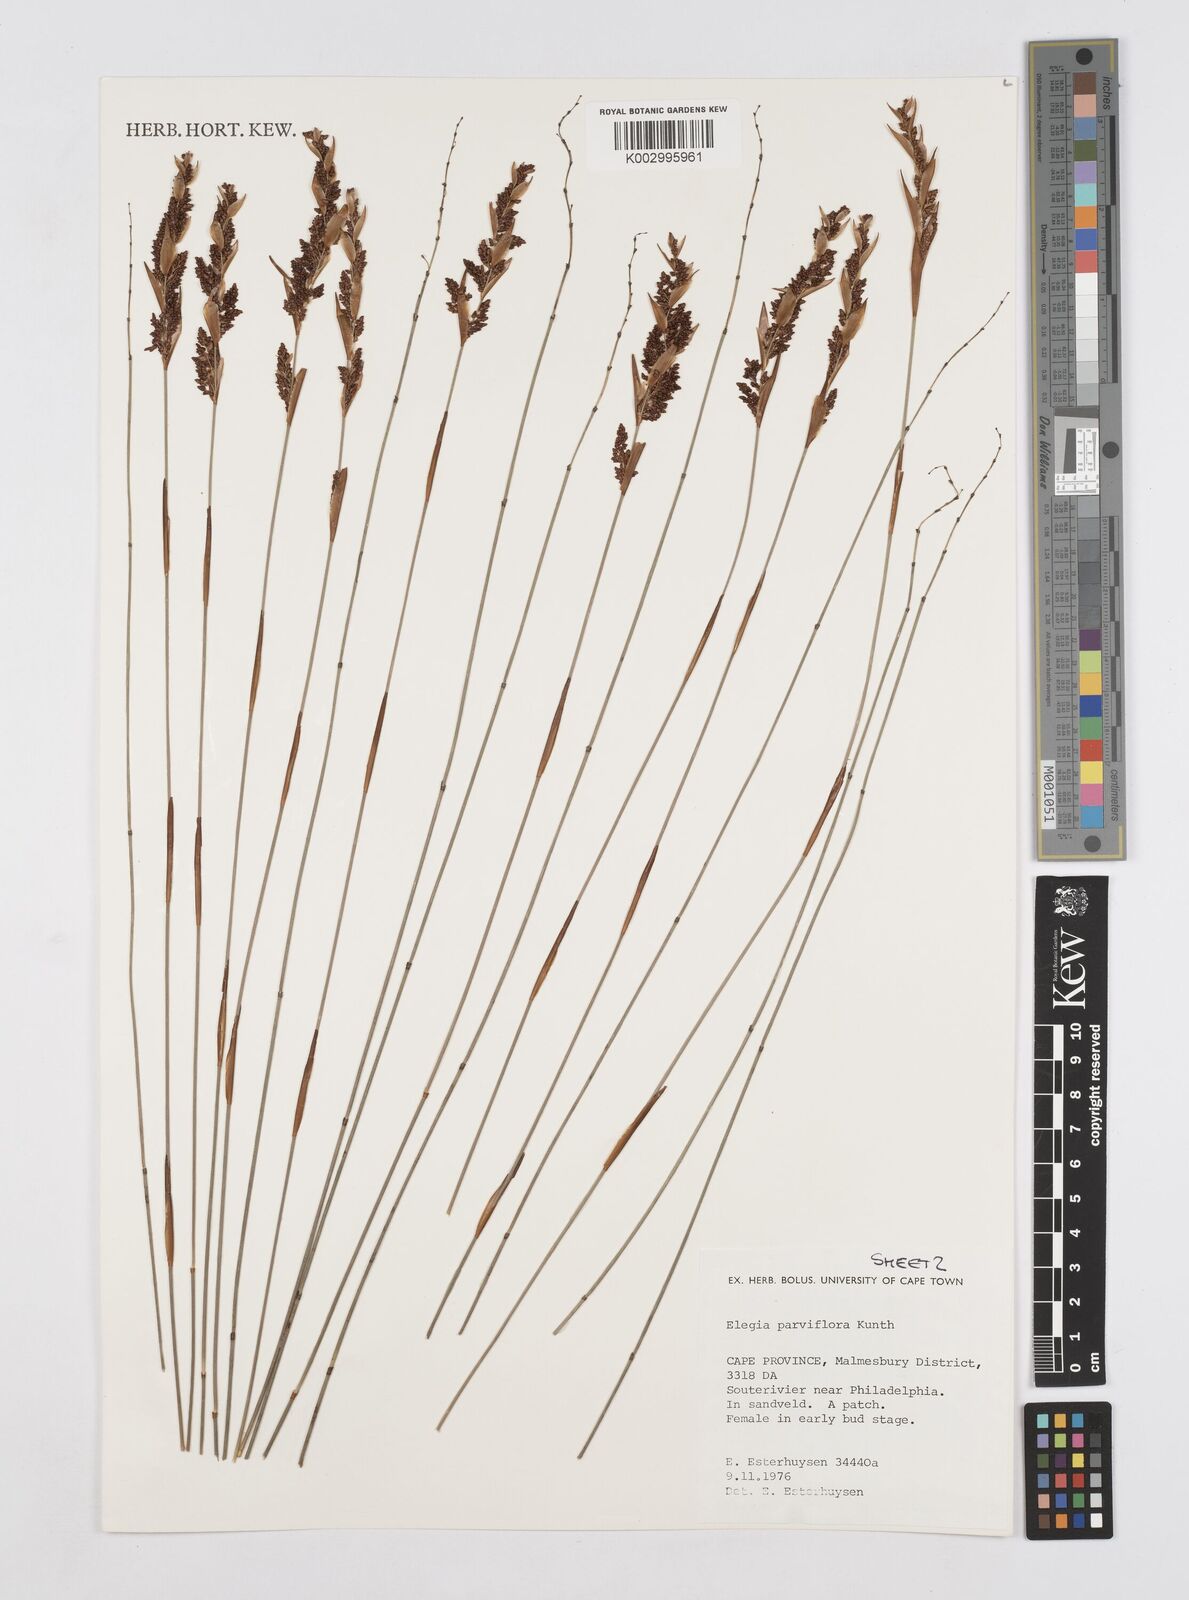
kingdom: Plantae
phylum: Tracheophyta
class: Liliopsida
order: Poales
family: Restionaceae
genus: Cannomois
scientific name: Cannomois parviflora
